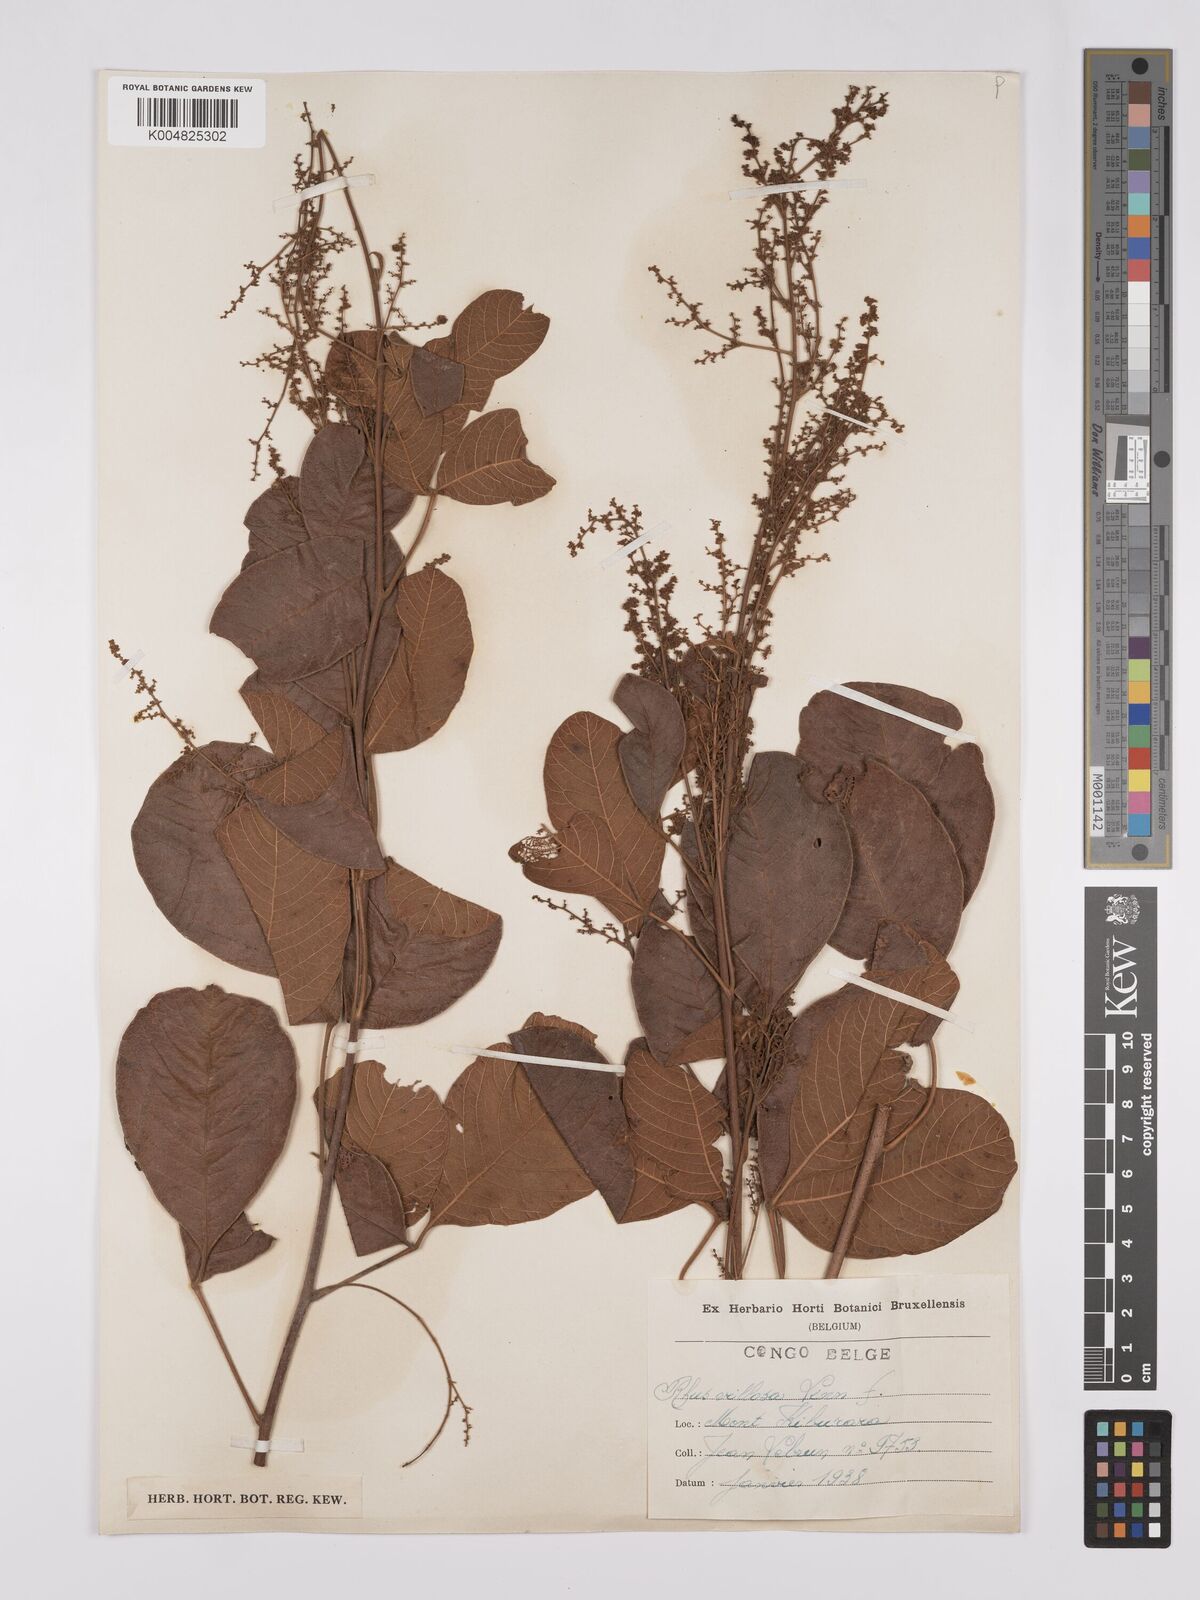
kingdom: Plantae
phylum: Tracheophyta
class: Magnoliopsida
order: Sapindales
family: Anacardiaceae
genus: Rhus
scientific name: Rhus
